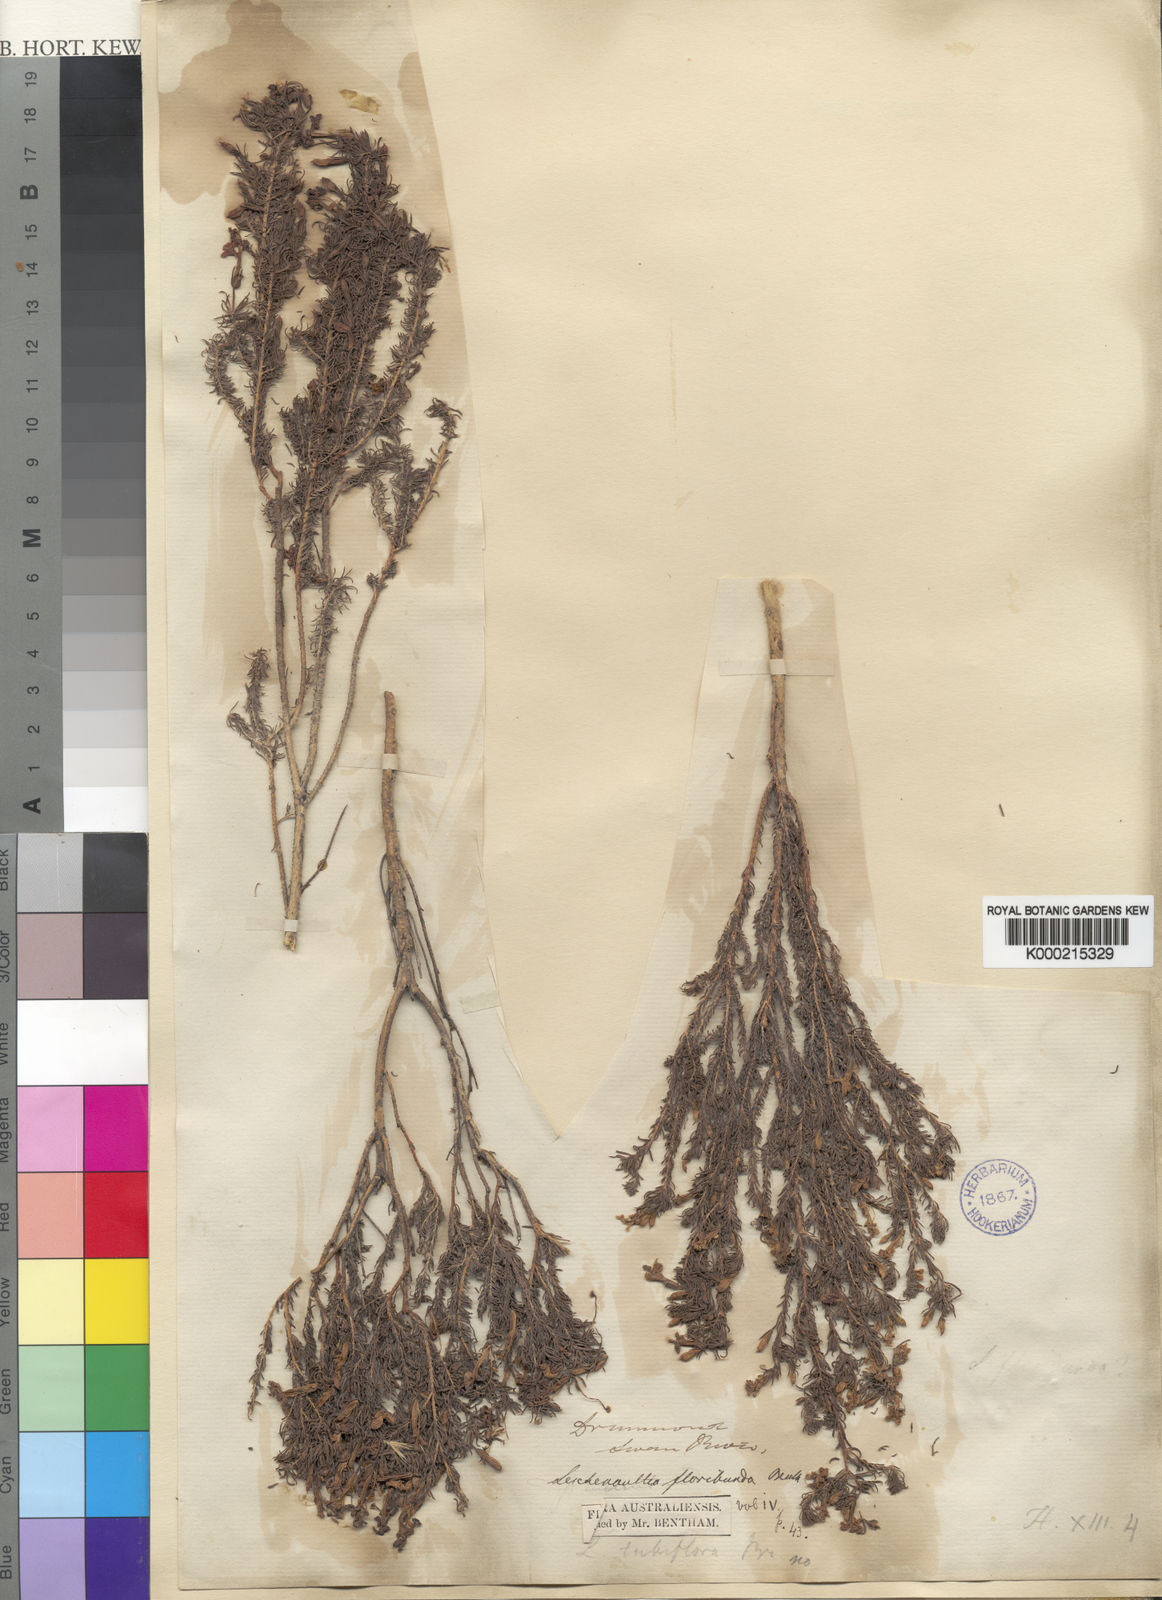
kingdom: Plantae
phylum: Tracheophyta
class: Magnoliopsida
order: Asterales
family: Goodeniaceae
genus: Leschenaultia
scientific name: Leschenaultia floribunda
